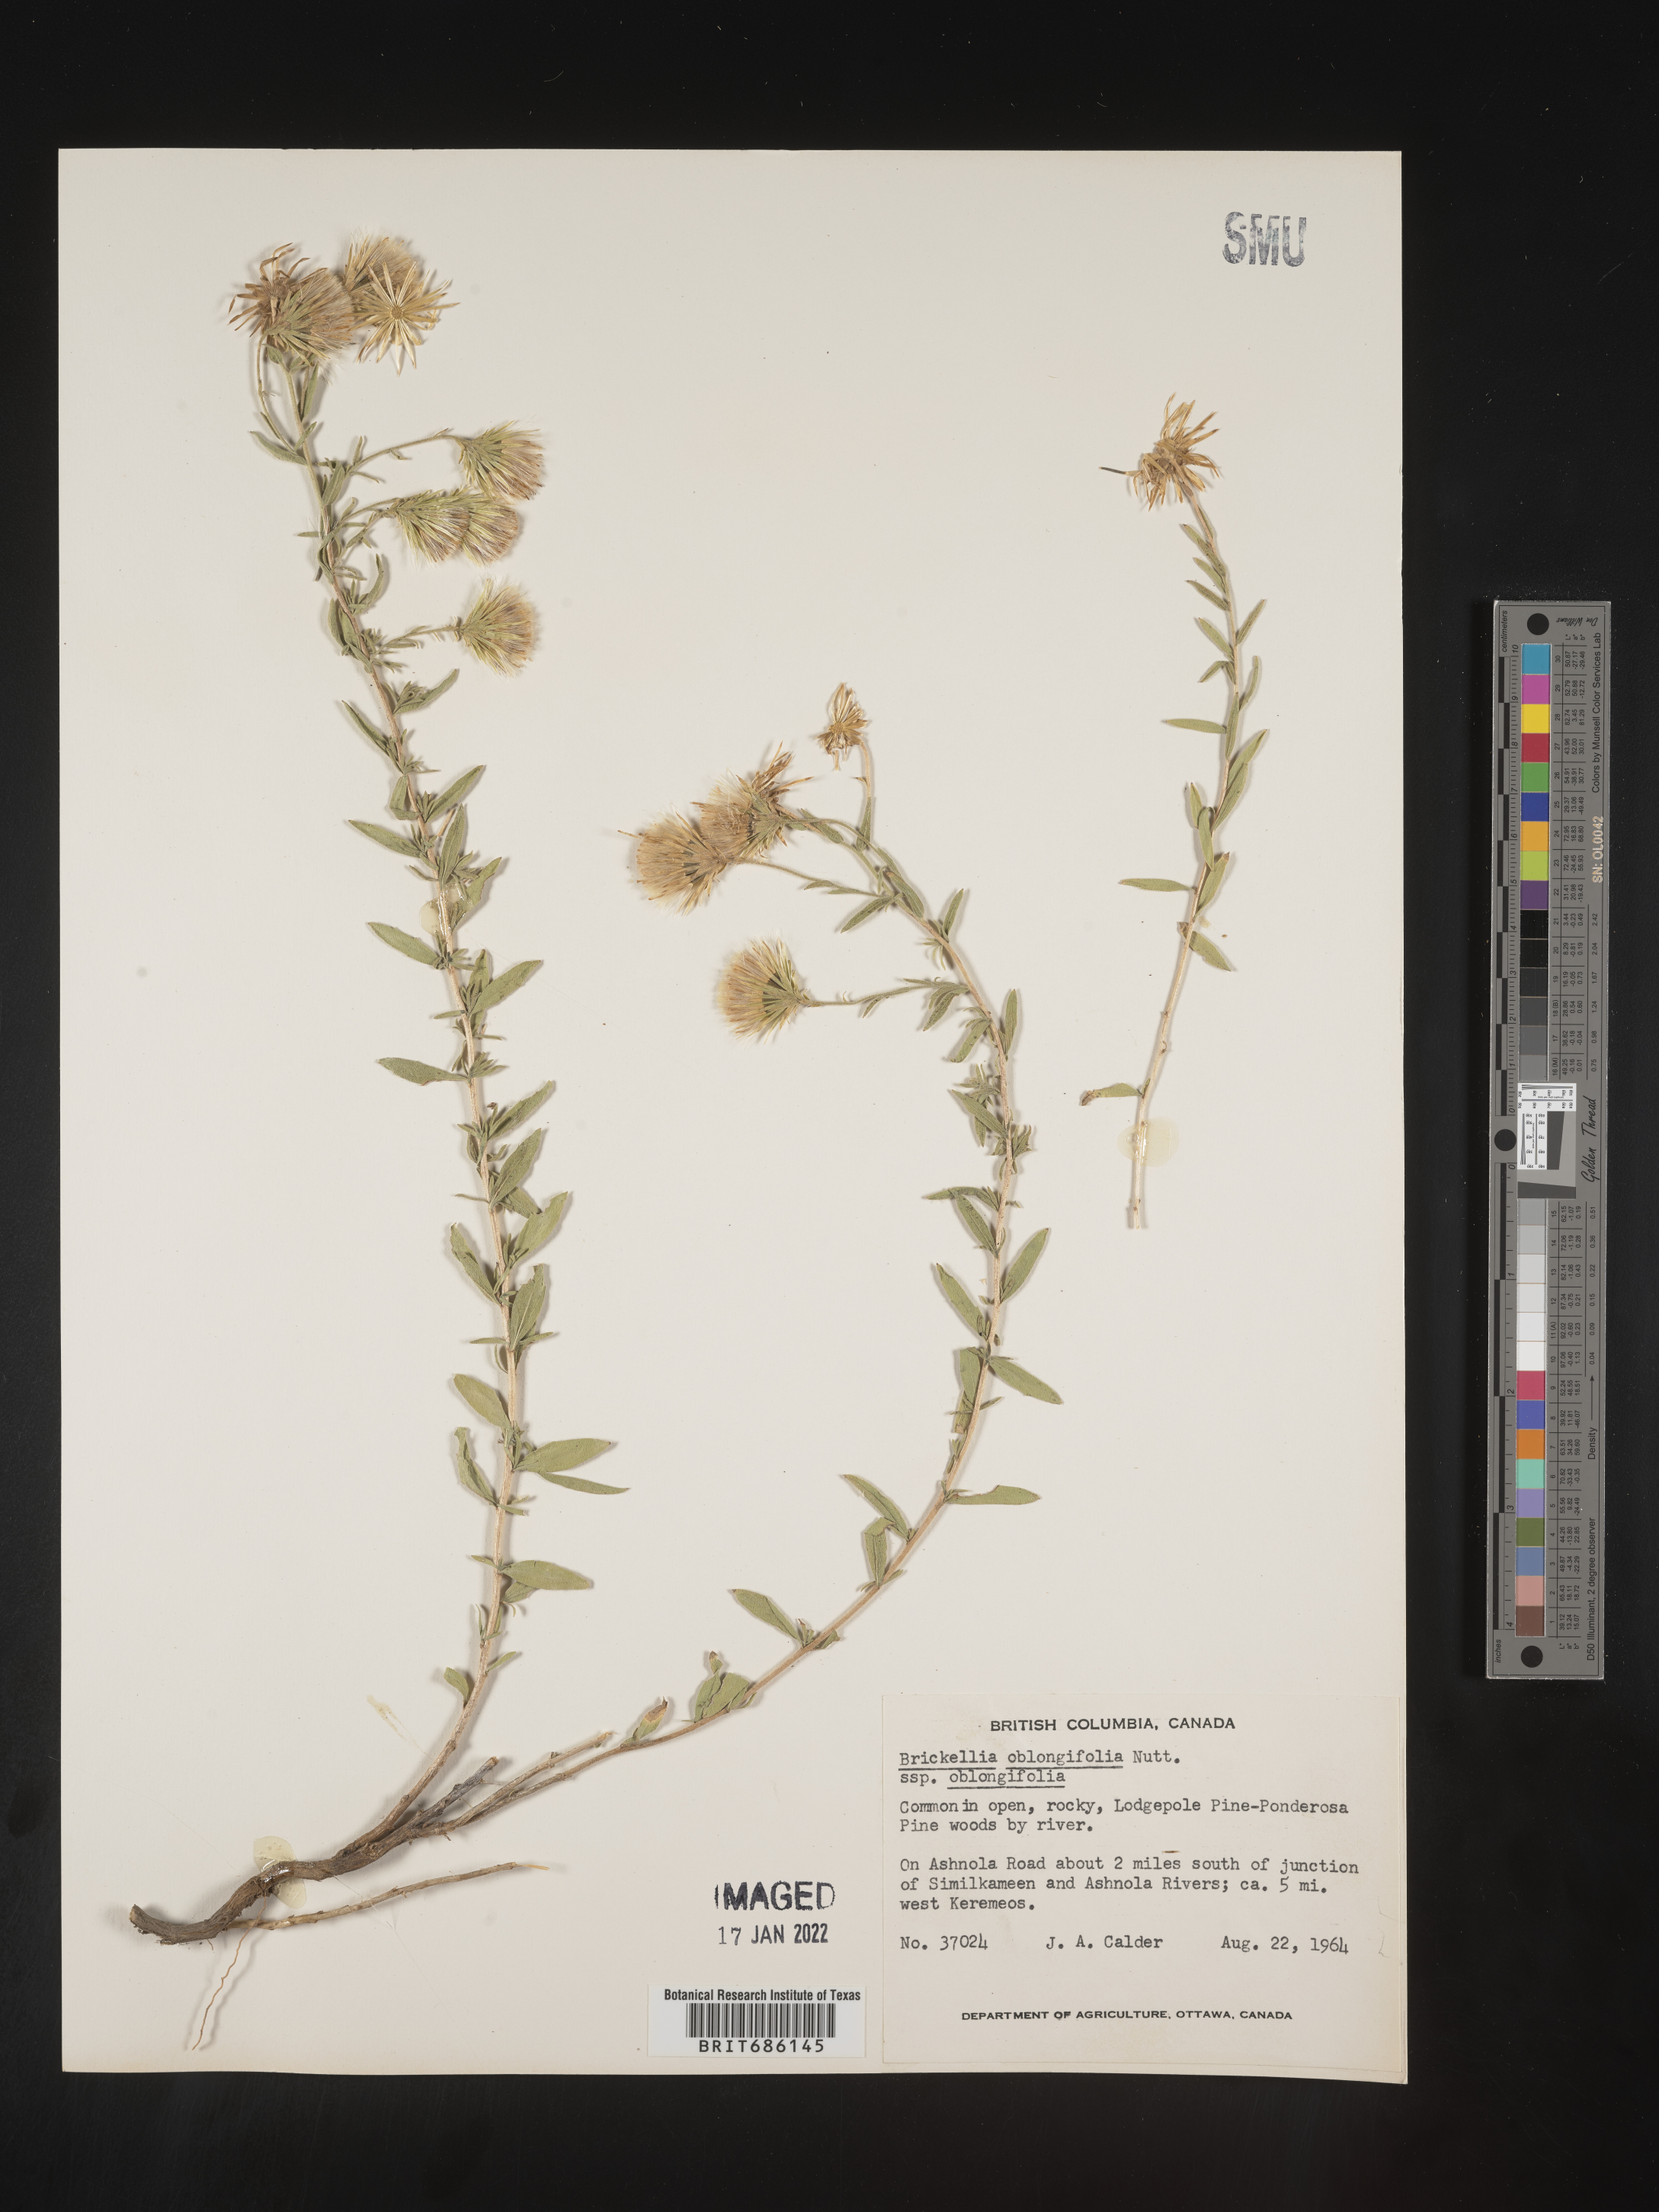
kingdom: Plantae
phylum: Tracheophyta
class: Magnoliopsida
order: Asterales
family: Asteraceae
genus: Brickellia
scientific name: Brickellia oblongifolia
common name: Mojave brickellbush
